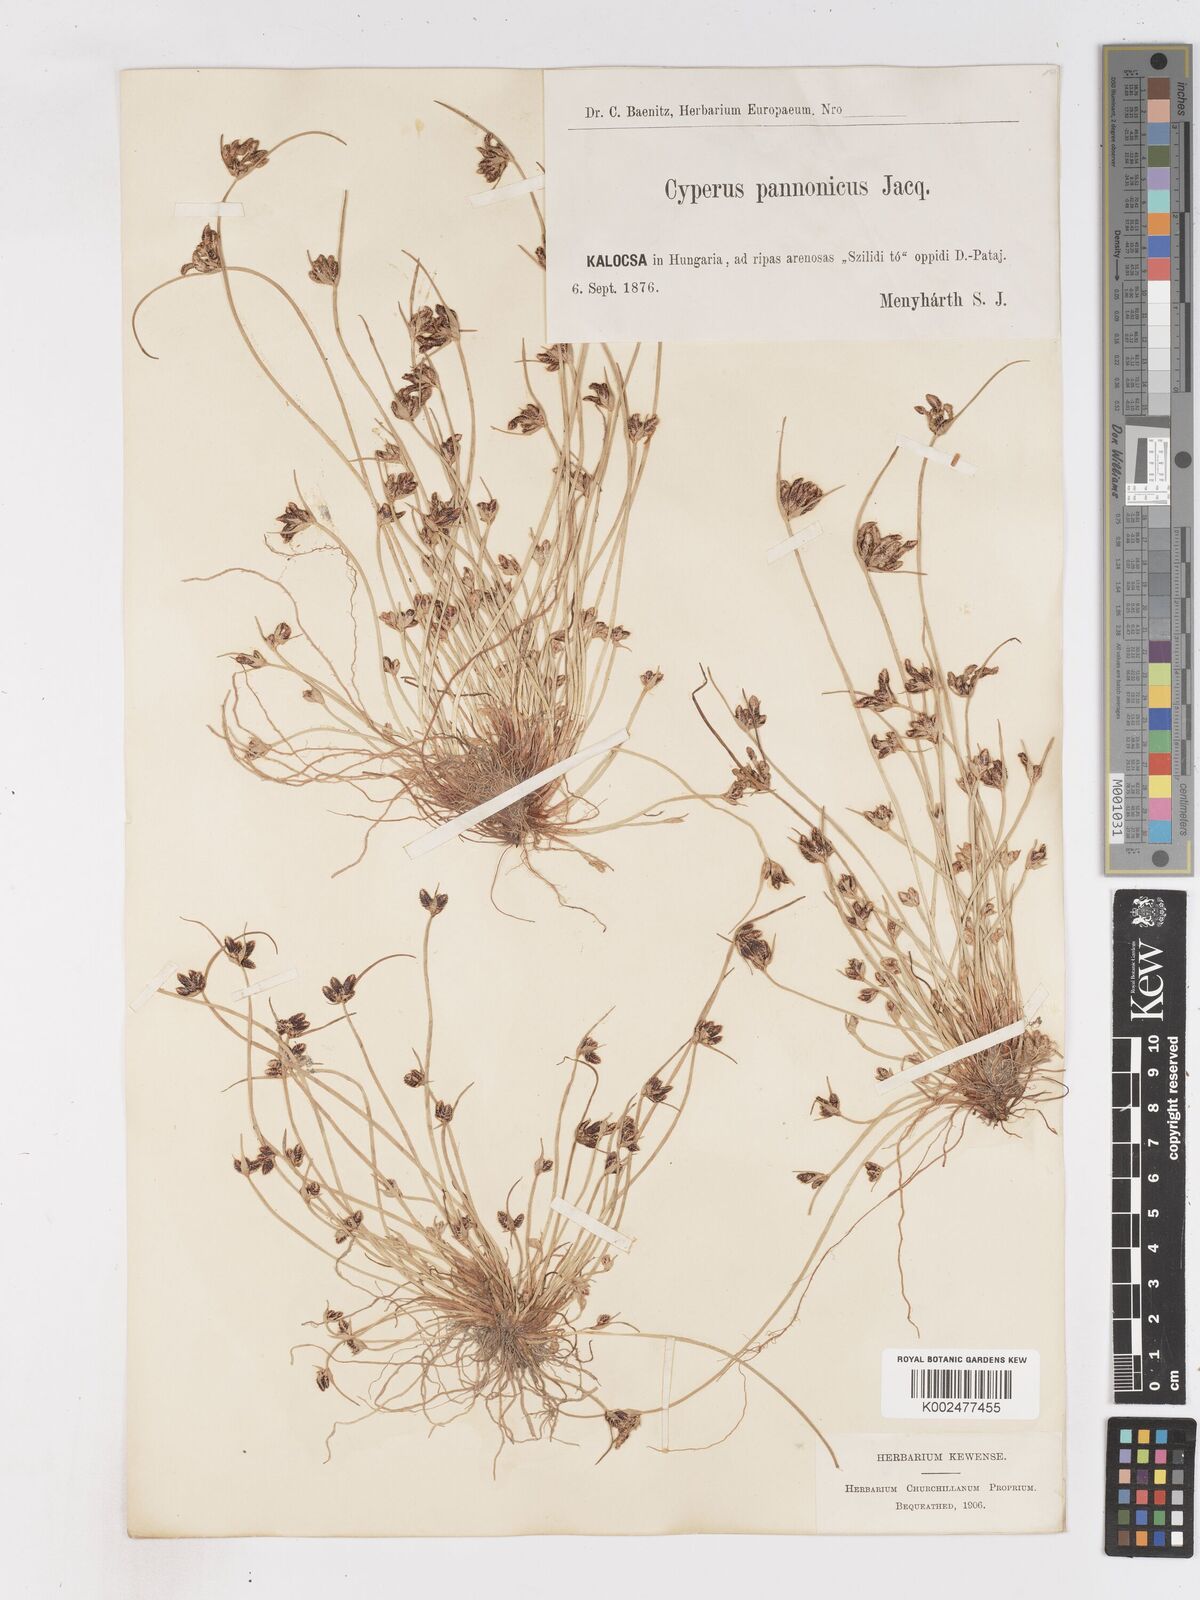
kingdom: Plantae
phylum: Tracheophyta
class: Liliopsida
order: Poales
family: Cyperaceae
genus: Cyperus
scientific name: Cyperus pannonicus
